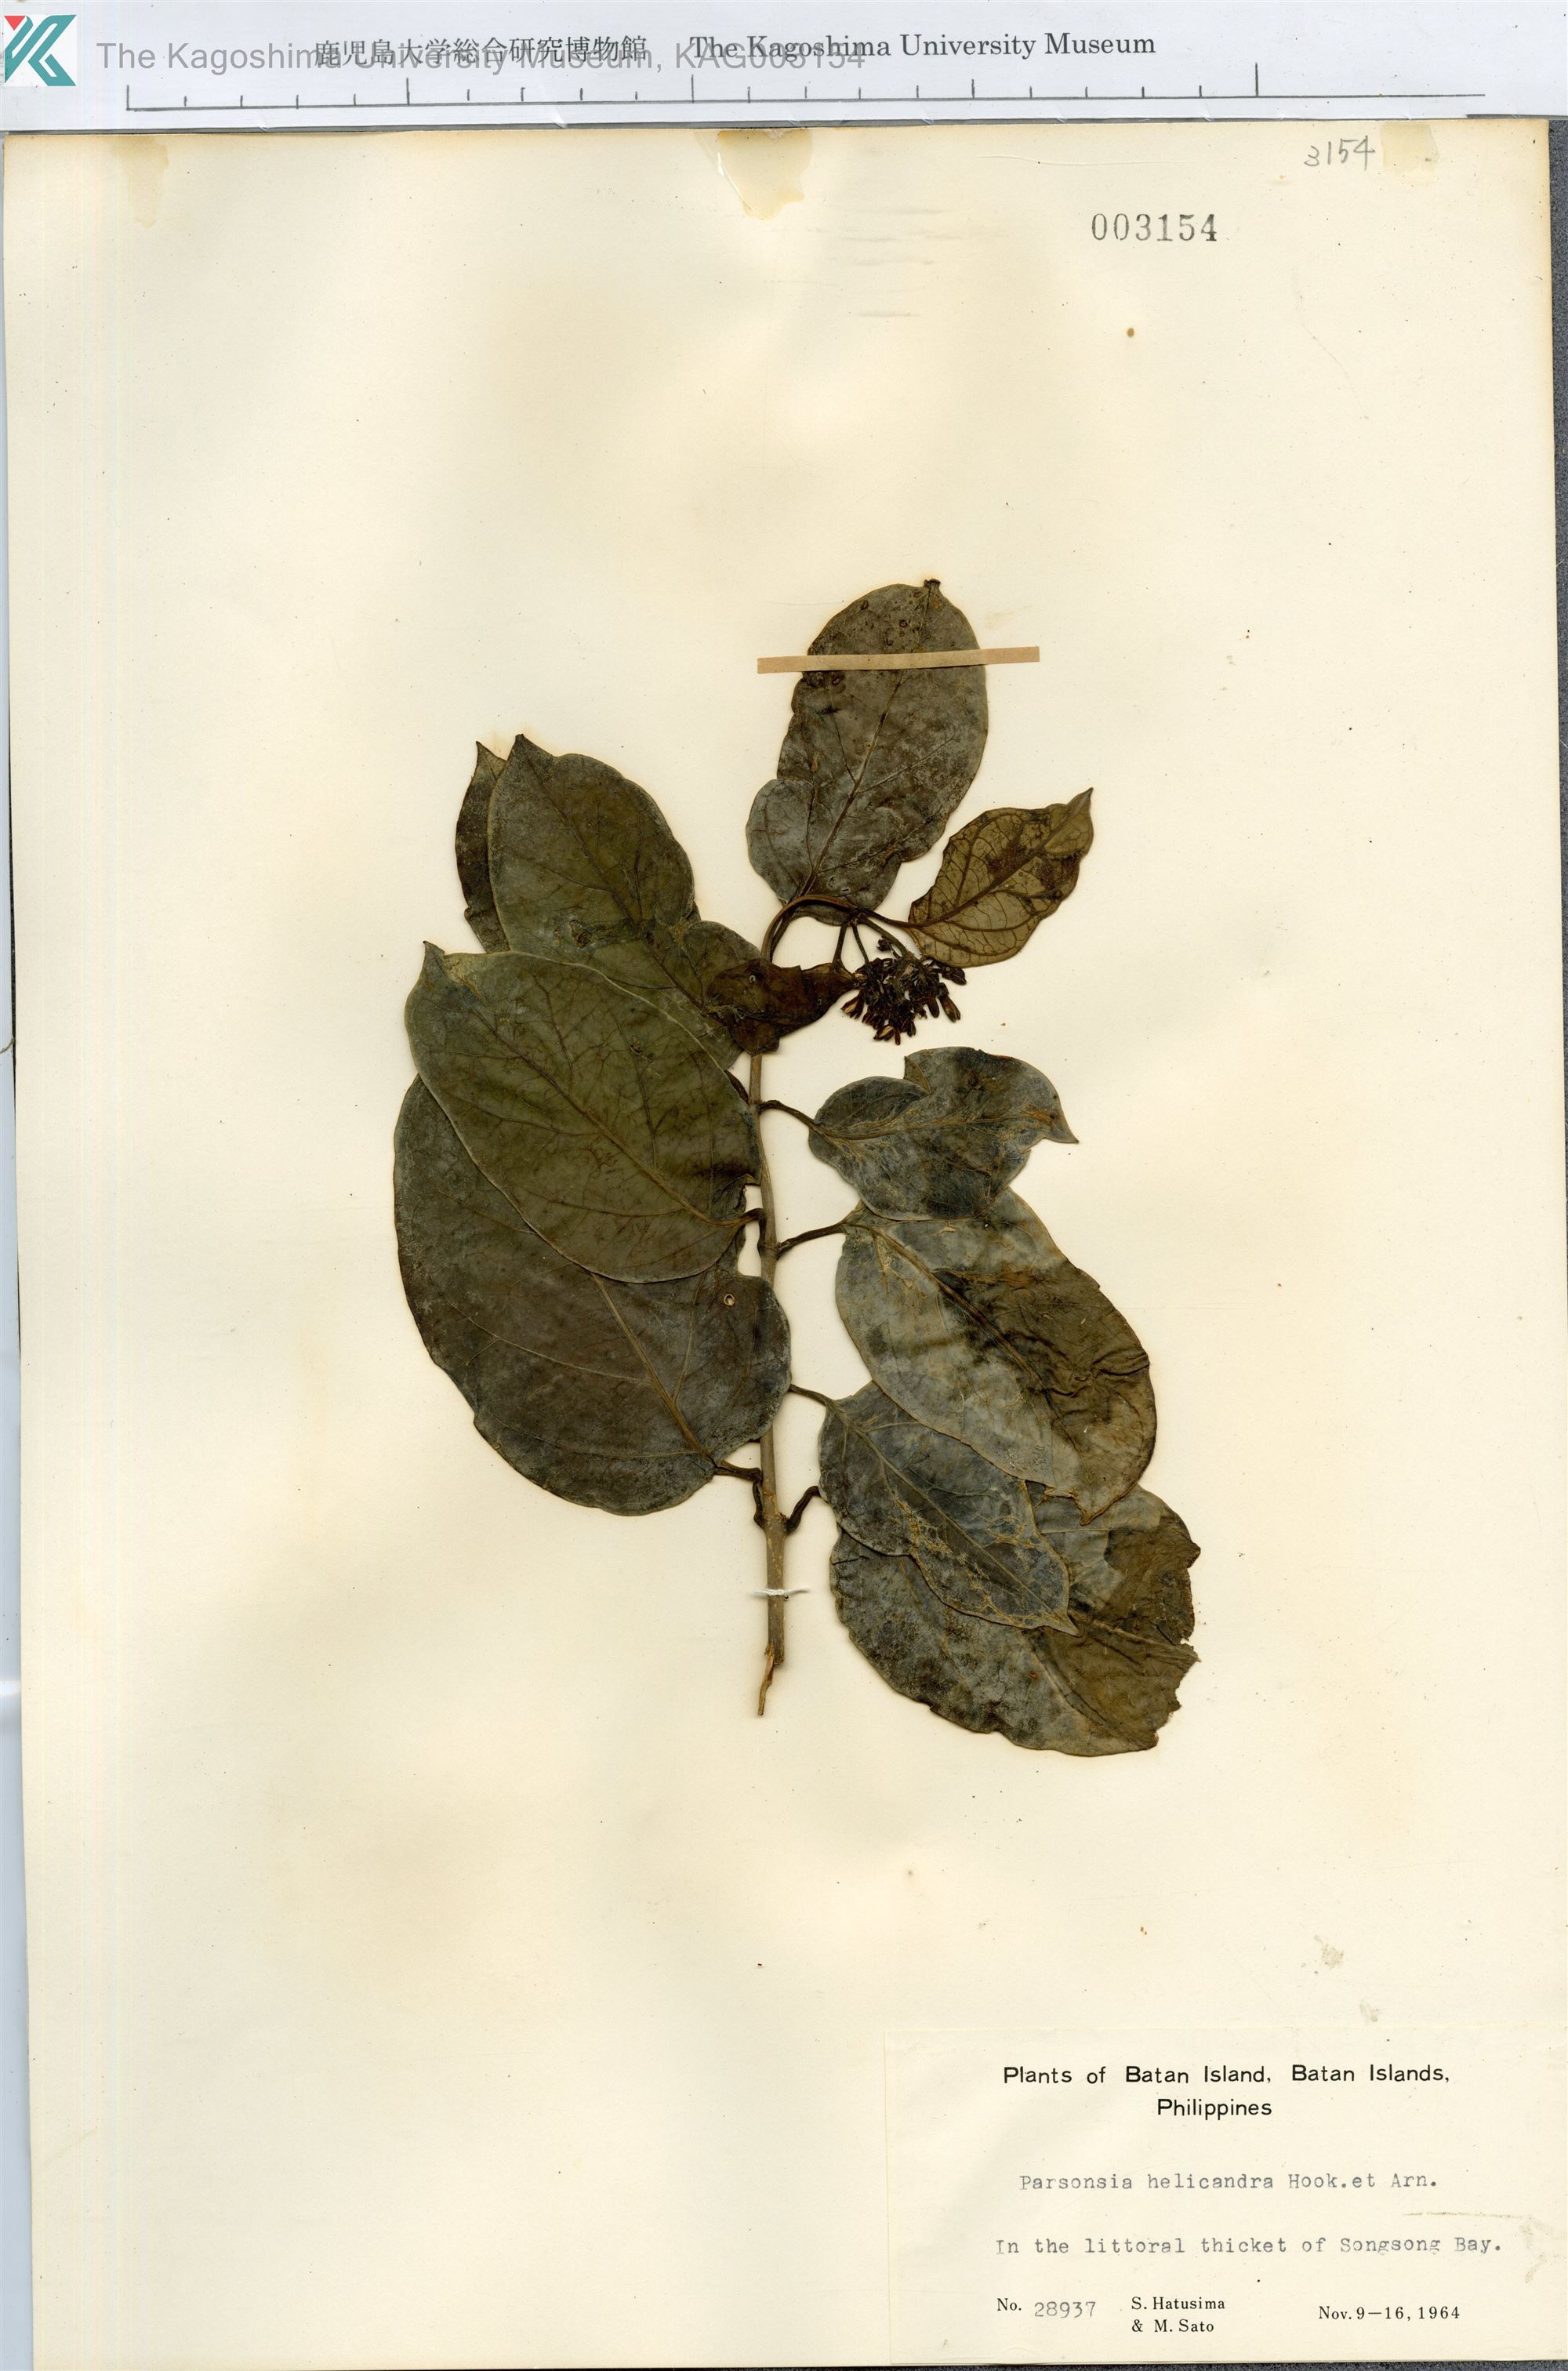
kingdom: Plantae
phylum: Tracheophyta
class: Magnoliopsida
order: Gentianales
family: Apocynaceae
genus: Parsonsia
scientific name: Parsonsia alboflavescens
